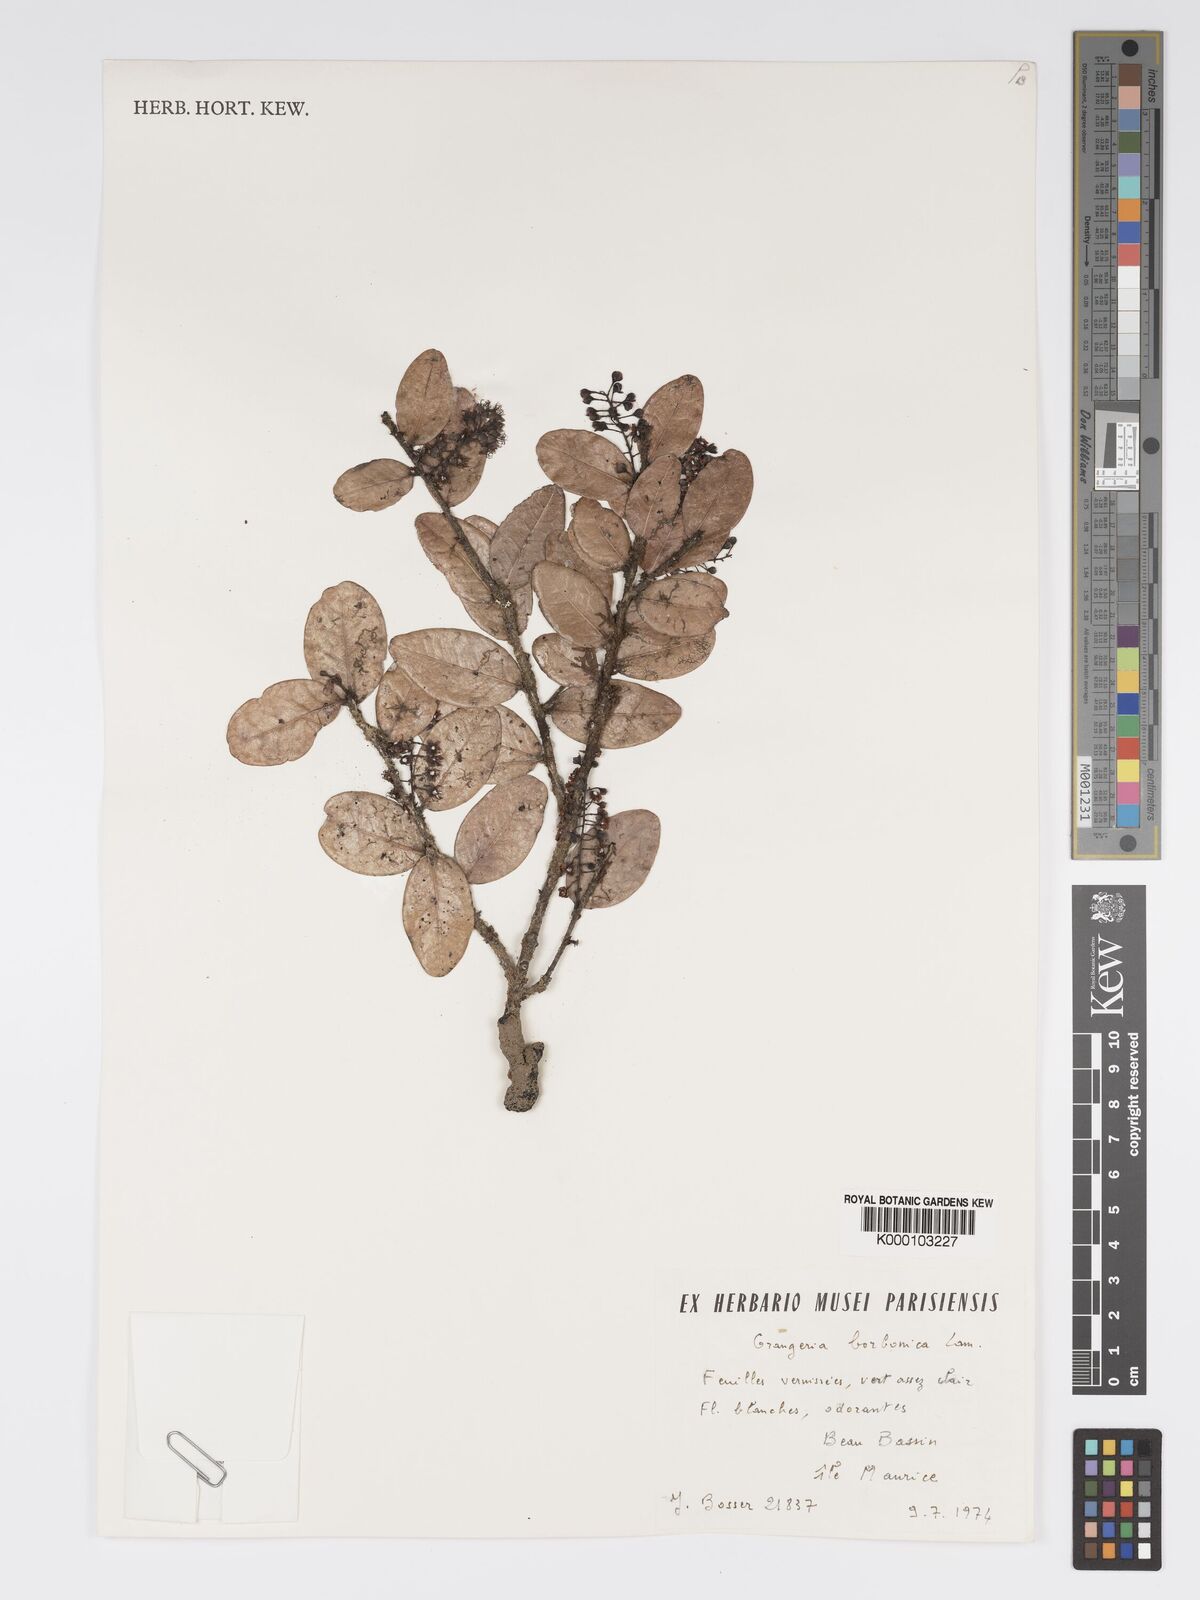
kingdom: Plantae
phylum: Tracheophyta
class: Magnoliopsida
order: Malpighiales
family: Chrysobalanaceae
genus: Grangeria
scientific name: Grangeria borbonica
